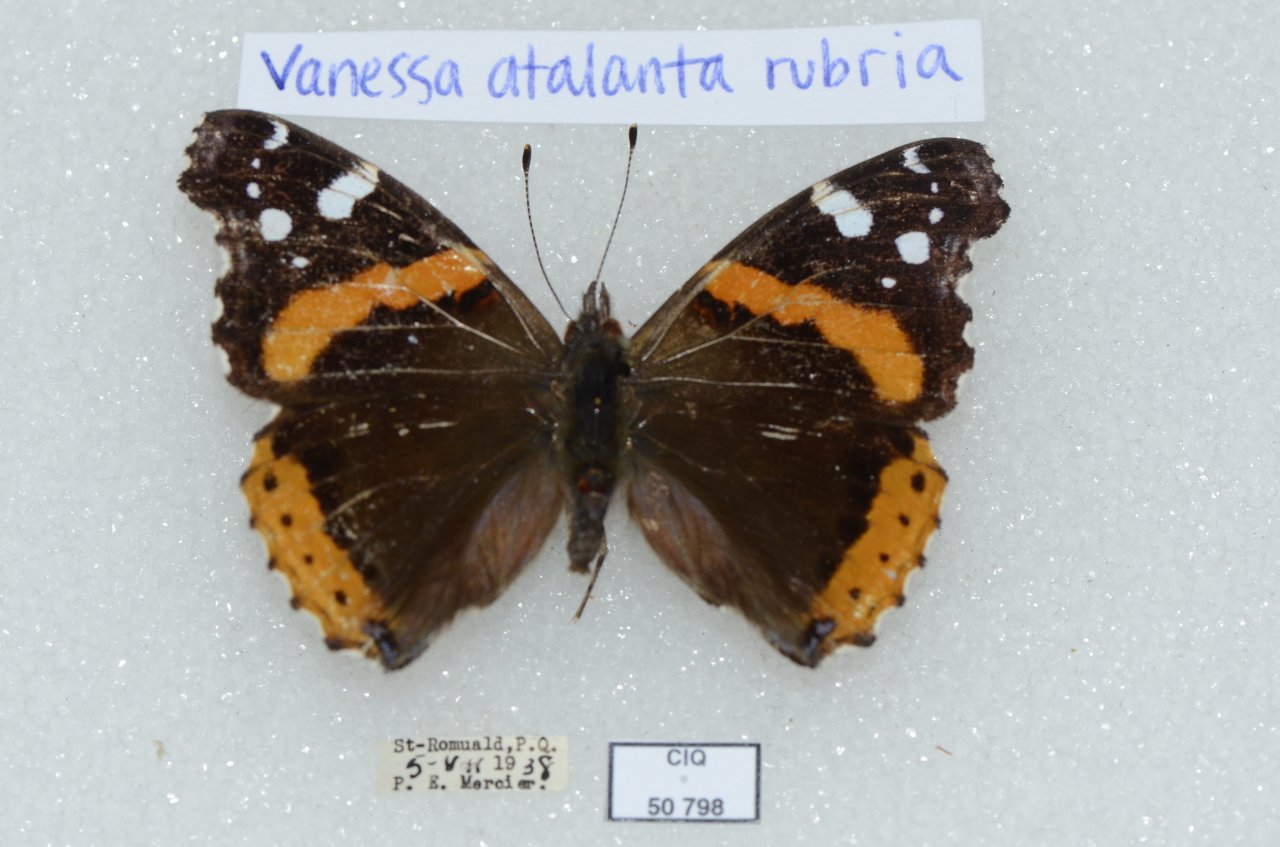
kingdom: Animalia
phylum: Arthropoda
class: Insecta
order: Lepidoptera
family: Nymphalidae
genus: Vanessa
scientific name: Vanessa atalanta
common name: Red Admiral
